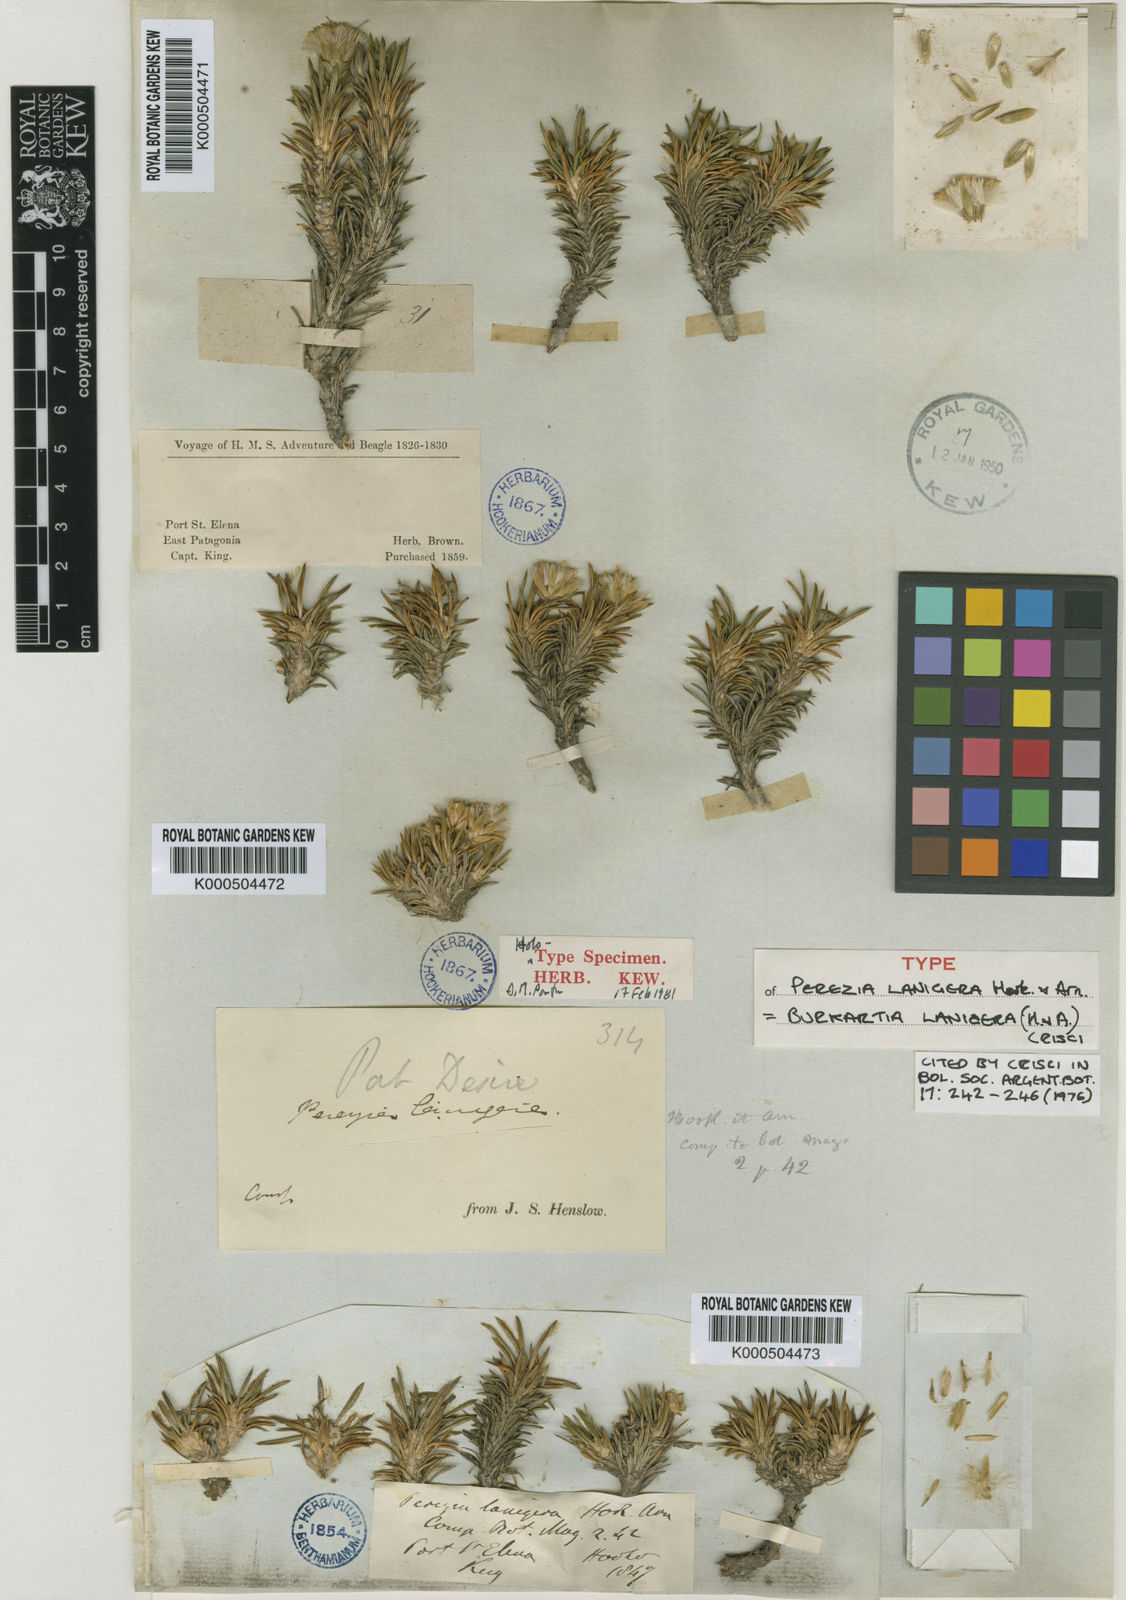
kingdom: Plantae
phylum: Tracheophyta
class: Magnoliopsida
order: Asterales
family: Asteraceae
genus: Burkartia
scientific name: Burkartia lanigera
